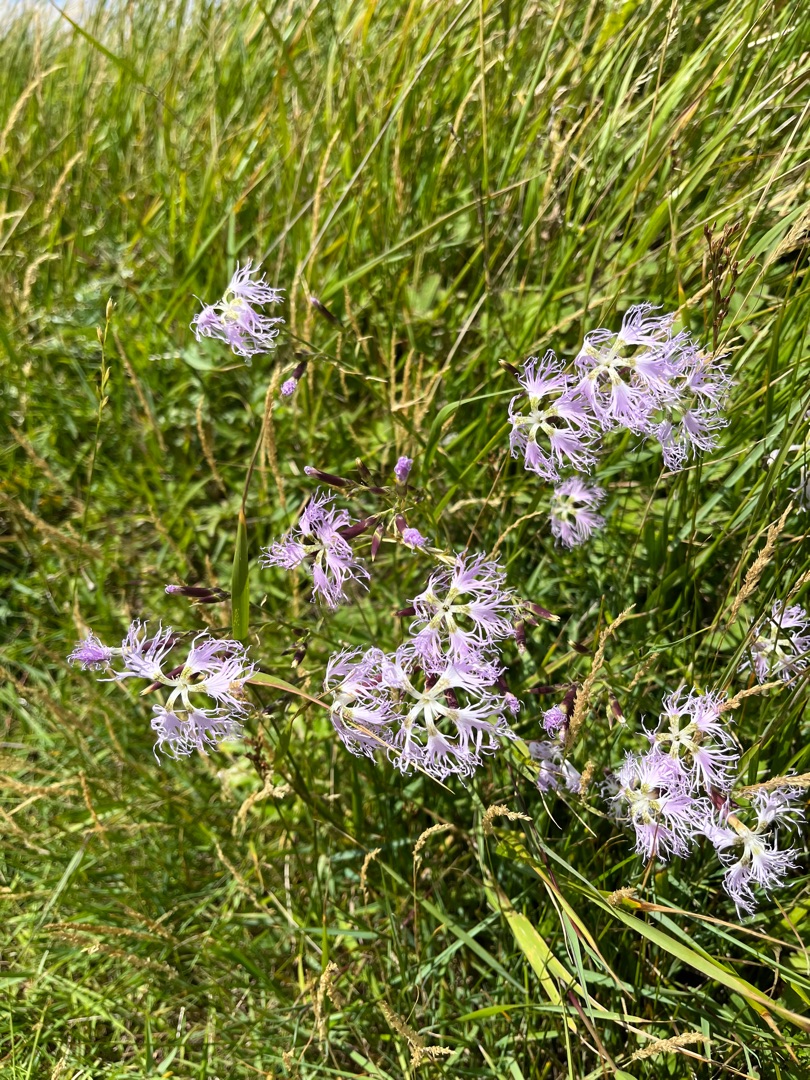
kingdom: Plantae
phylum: Tracheophyta
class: Magnoliopsida
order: Caryophyllales
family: Caryophyllaceae
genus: Dianthus
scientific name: Dianthus superbus
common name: Strand-nellike
